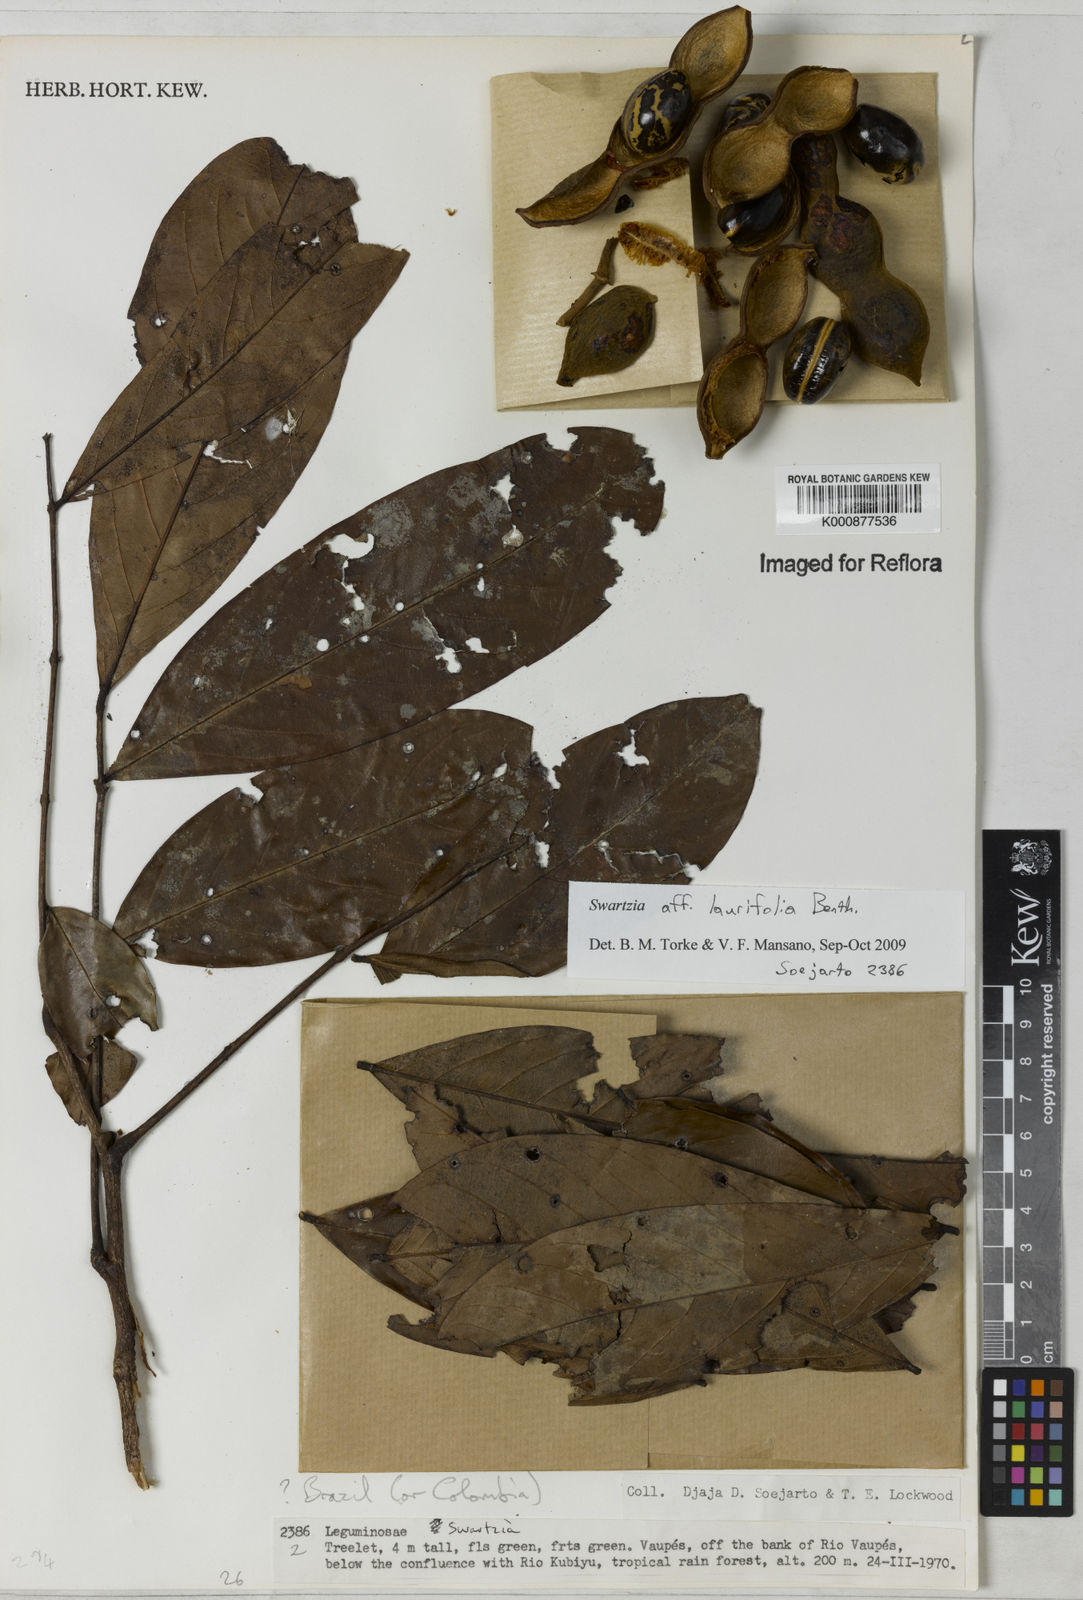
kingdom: Plantae
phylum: Tracheophyta
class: Magnoliopsida
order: Fabales
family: Fabaceae
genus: Swartzia
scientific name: Swartzia laurifolia
